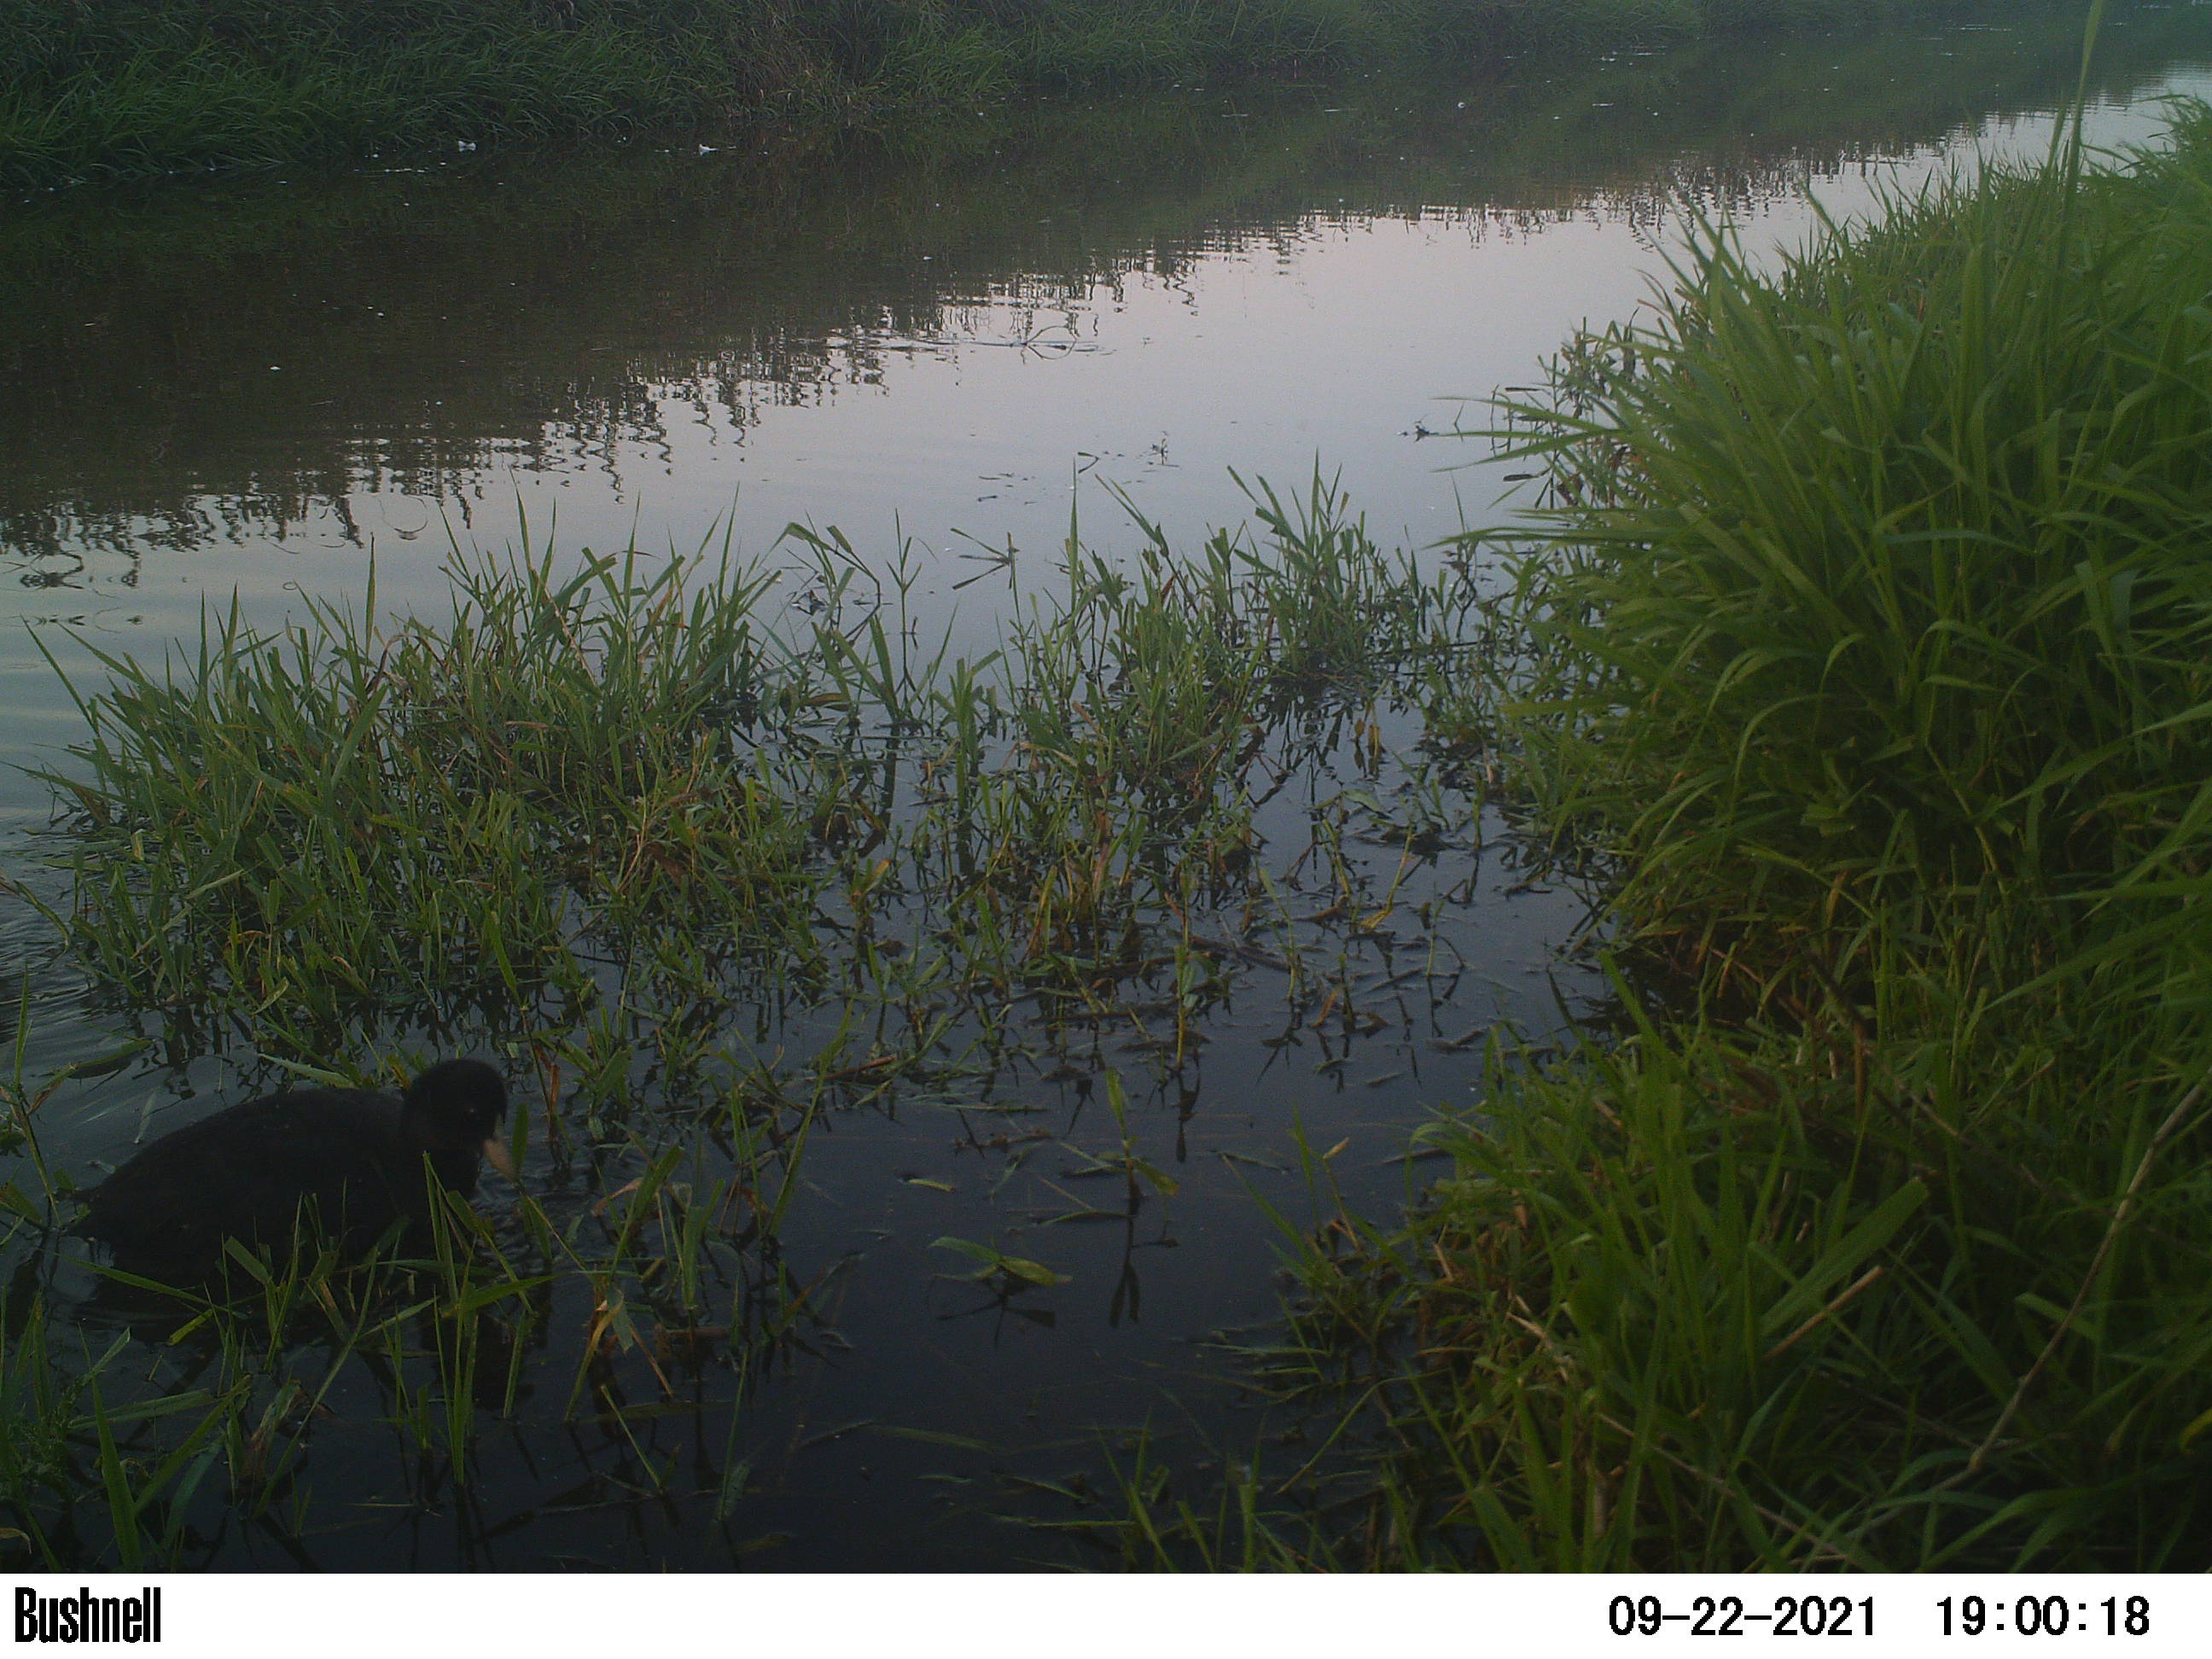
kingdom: Animalia
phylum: Chordata
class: Aves
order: Gruiformes
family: Rallidae
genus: Fulica
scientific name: Fulica atra
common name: Eurasian coot
